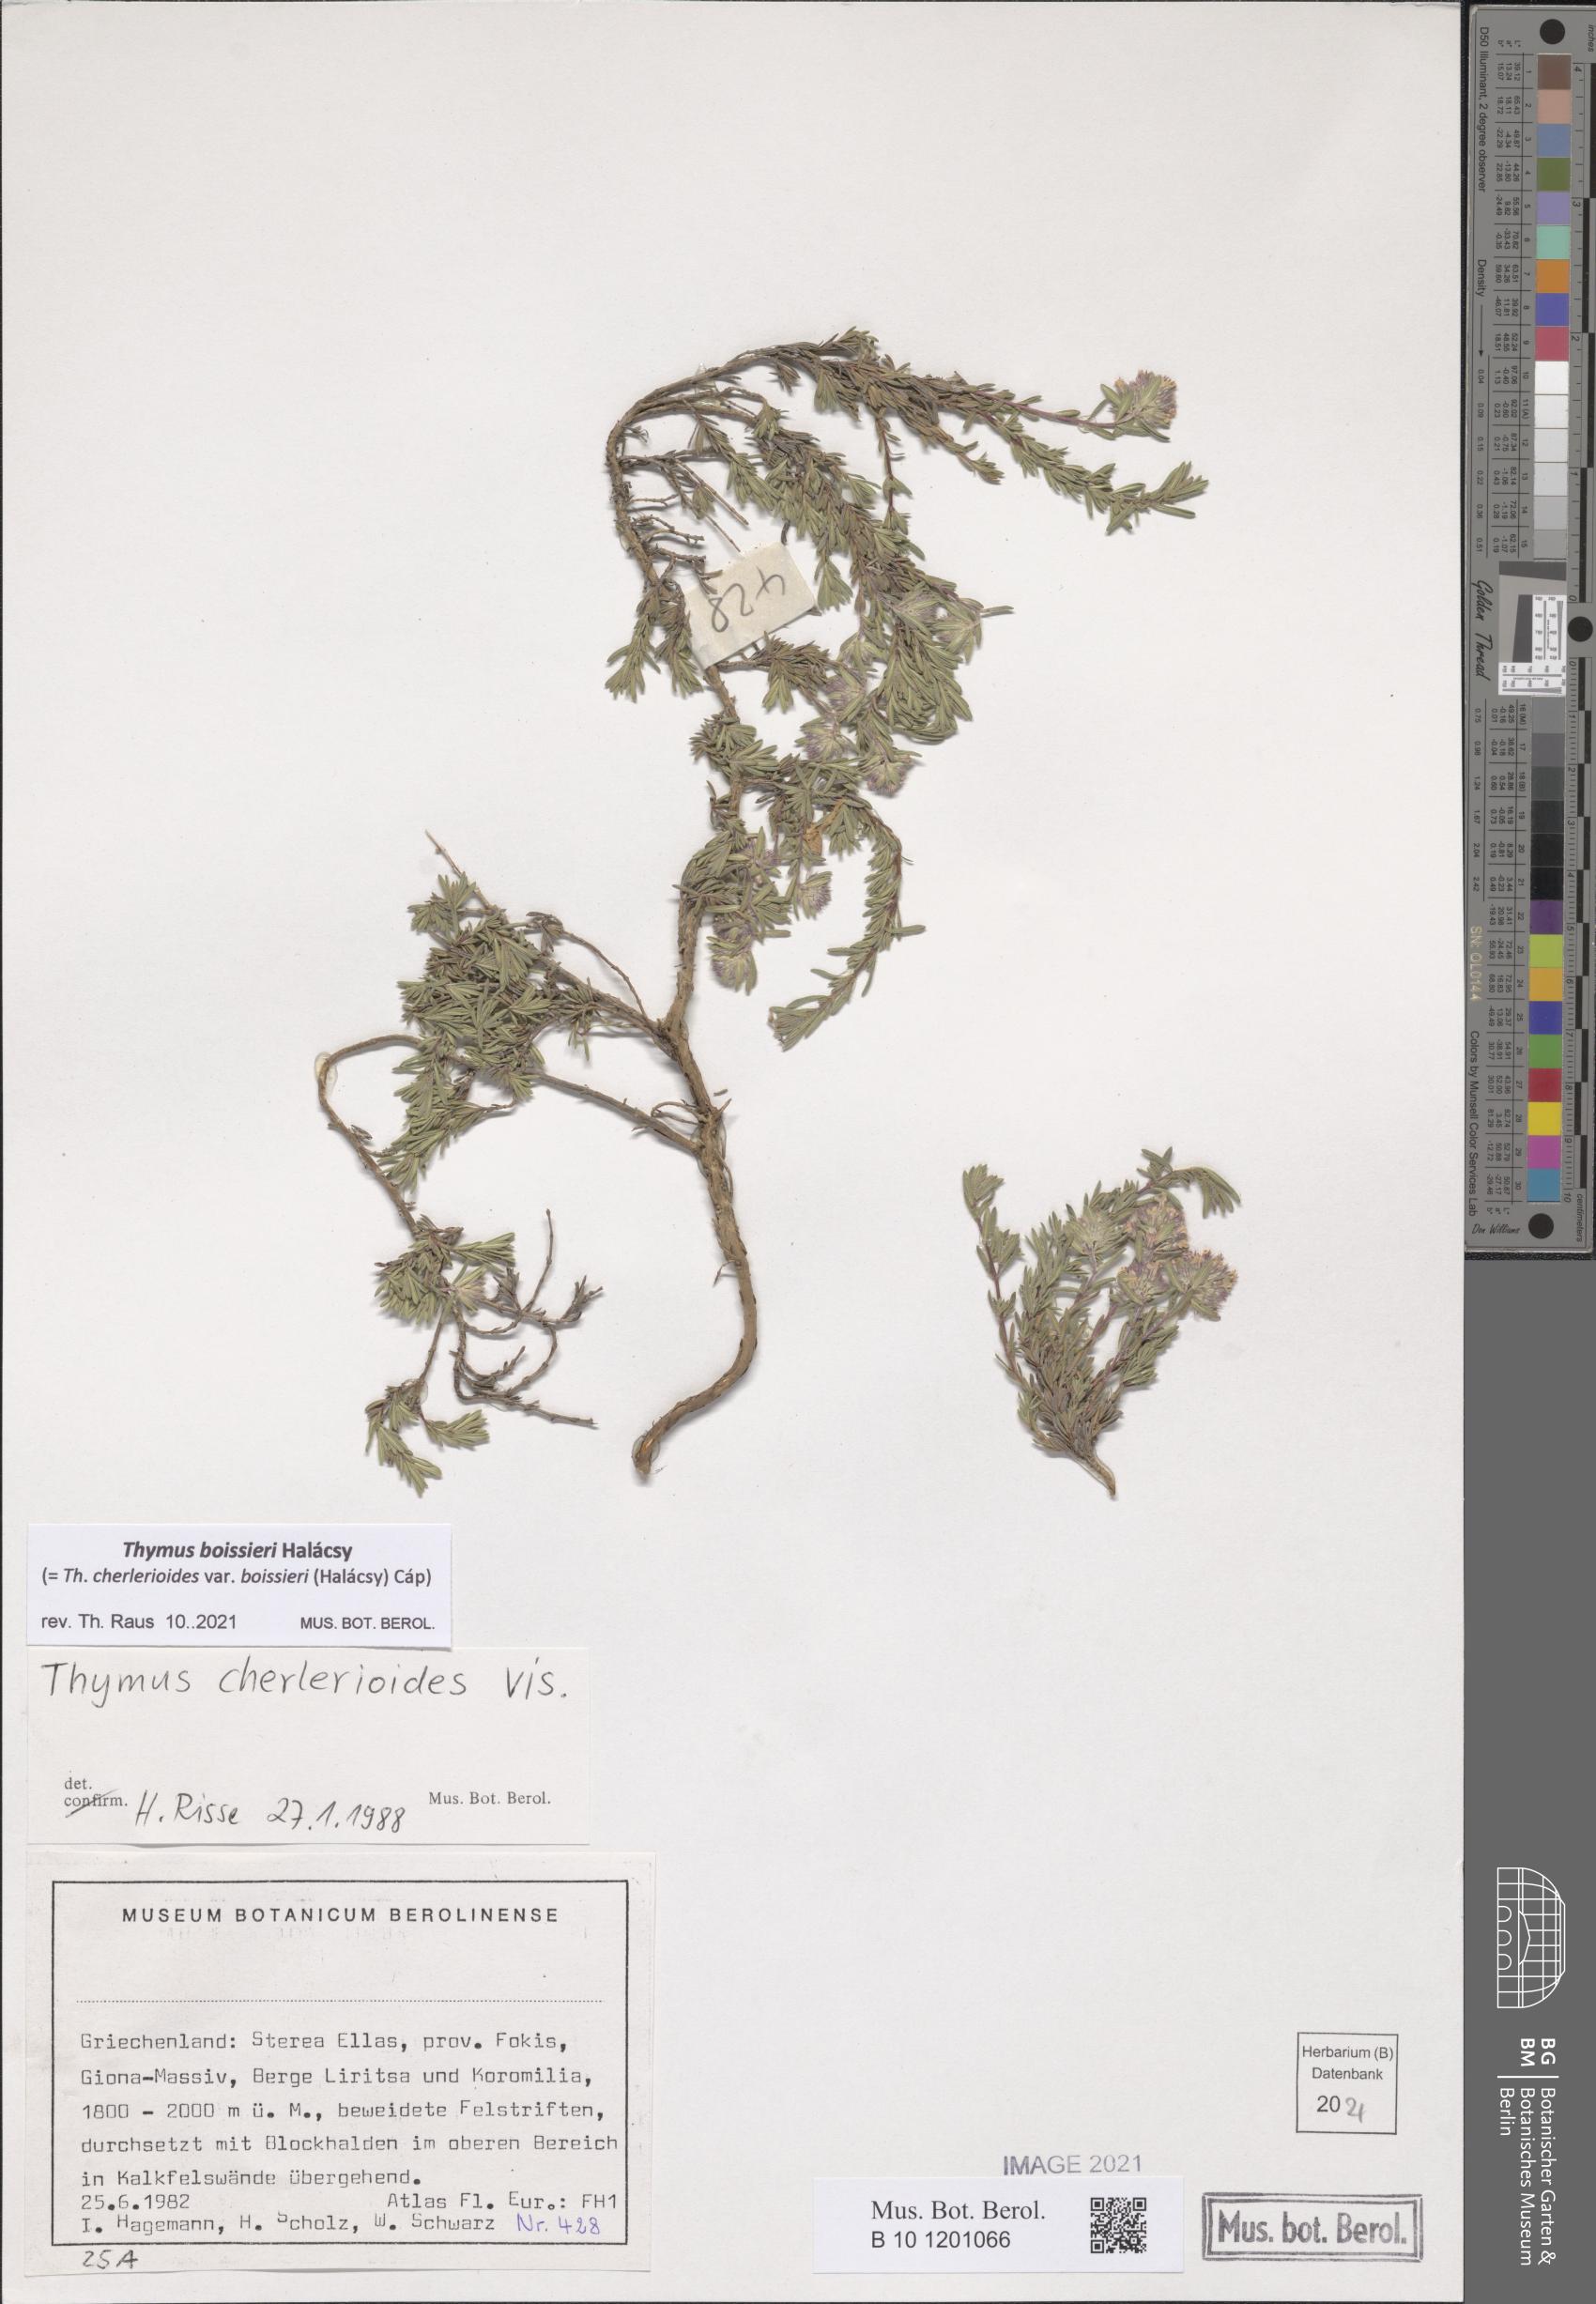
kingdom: Plantae
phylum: Tracheophyta
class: Magnoliopsida
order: Lamiales
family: Lamiaceae
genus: Thymus
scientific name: Thymus boissieri
